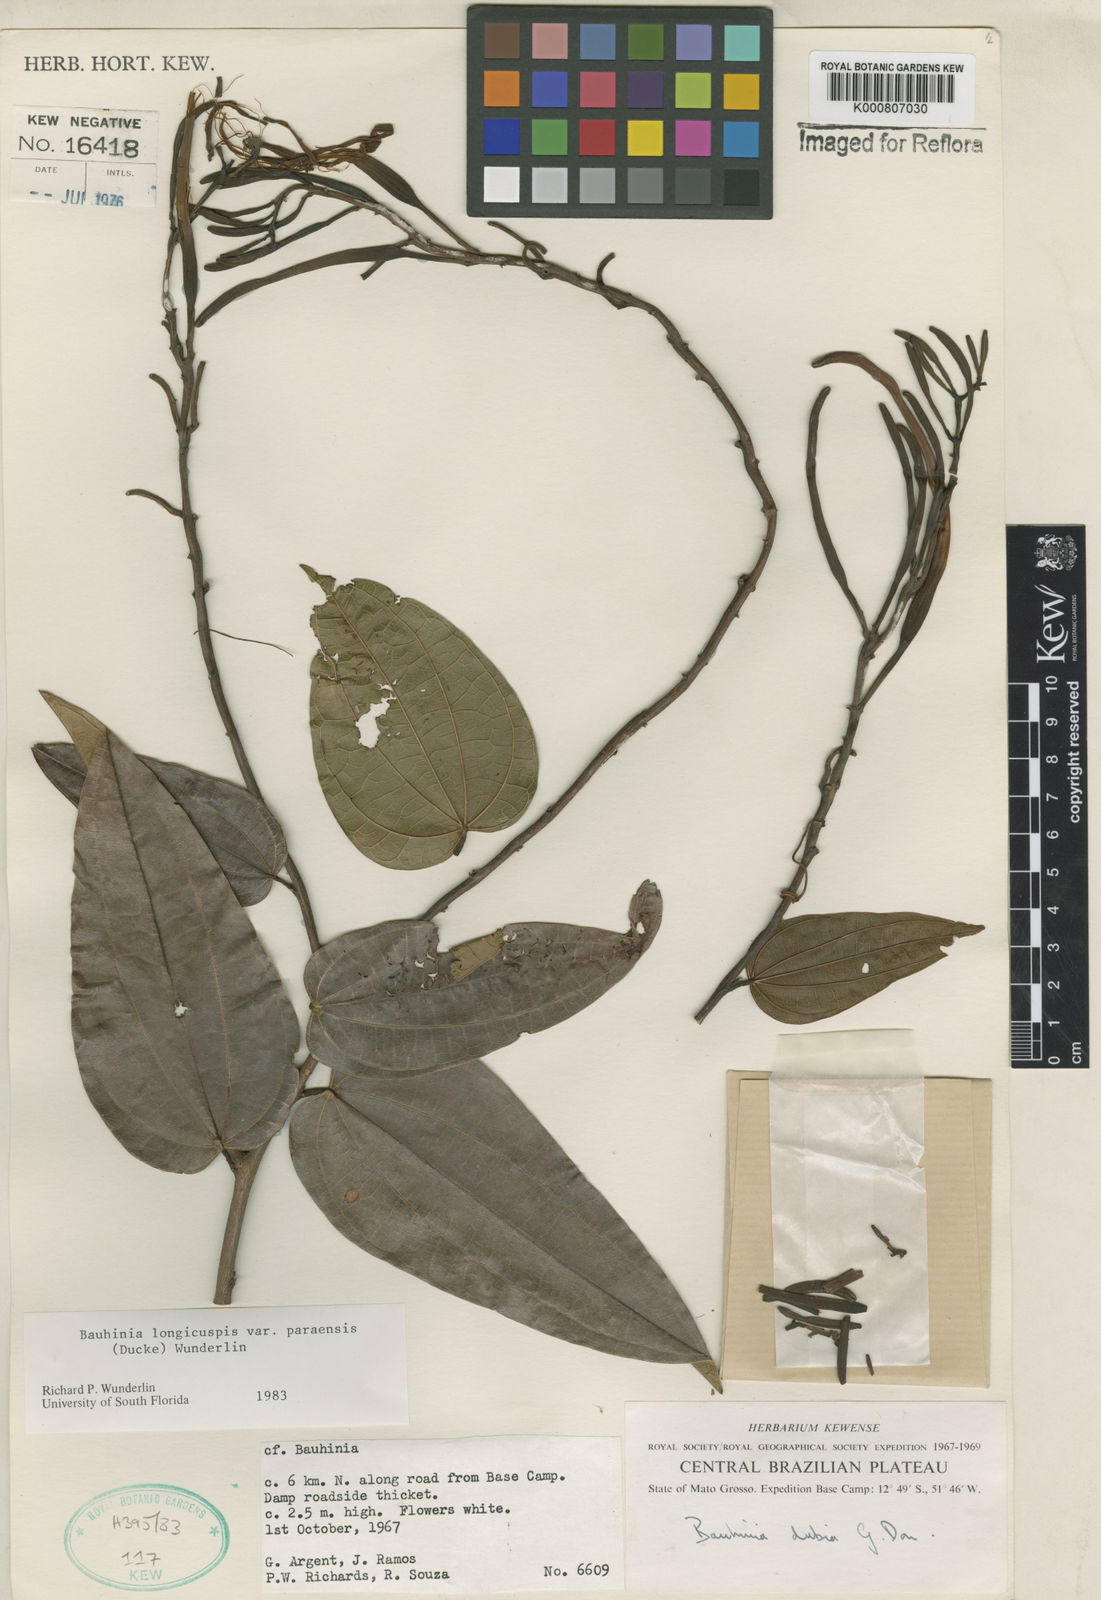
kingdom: Plantae
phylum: Tracheophyta
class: Magnoliopsida
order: Fabales
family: Fabaceae
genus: Bauhinia
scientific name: Bauhinia longicuspis
